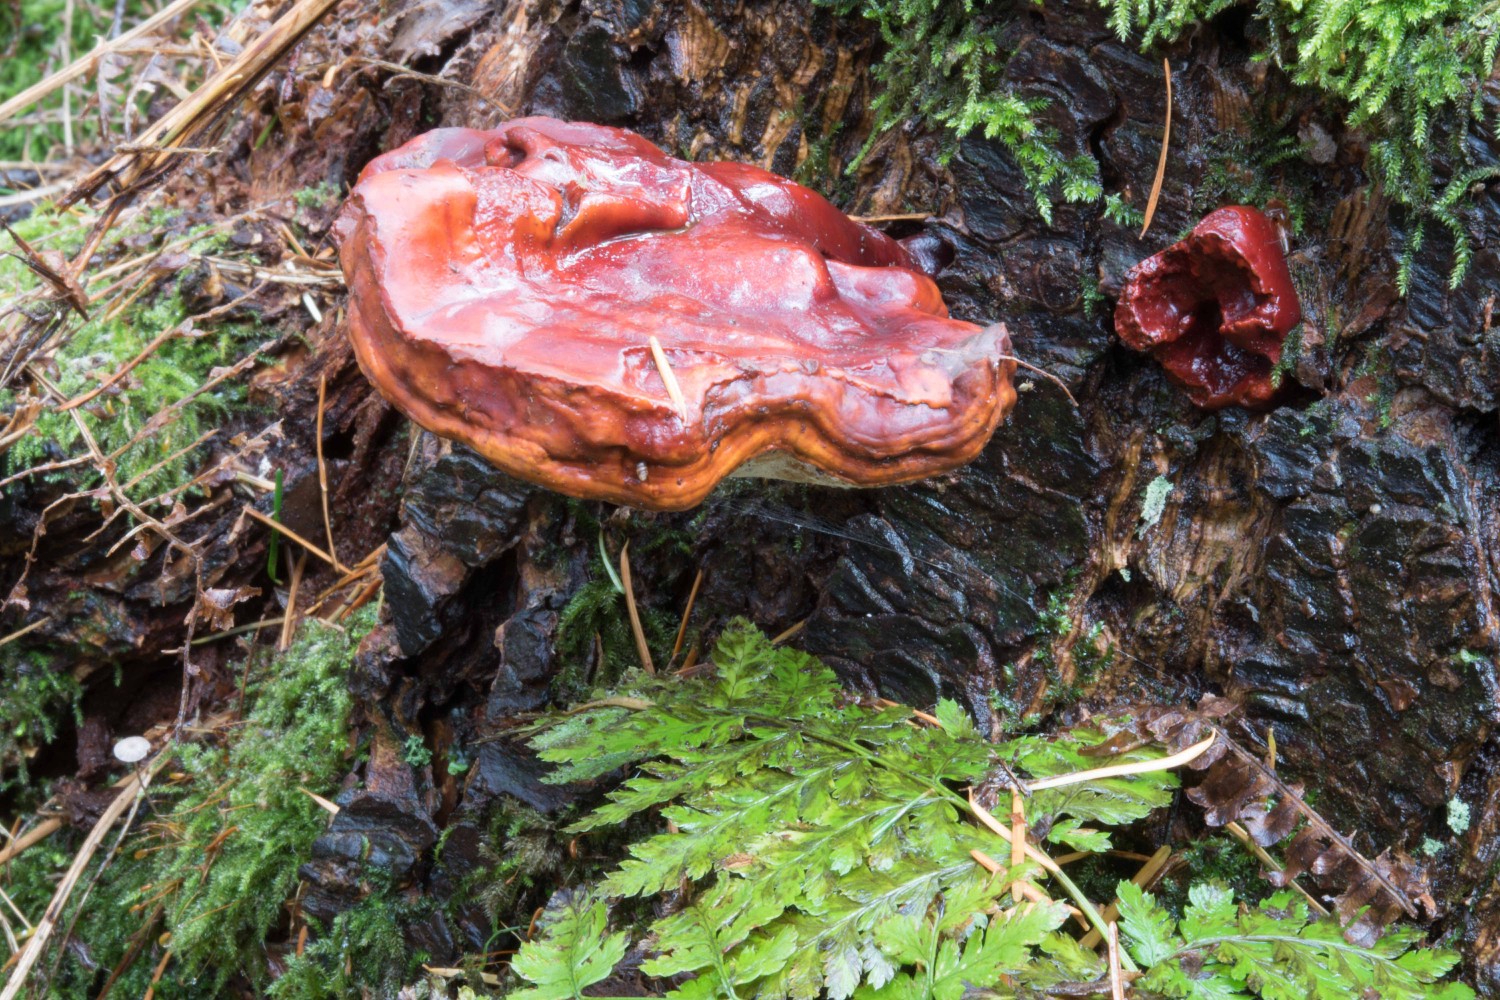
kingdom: Fungi
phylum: Basidiomycota
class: Agaricomycetes
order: Polyporales
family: Polyporaceae
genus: Ganoderma
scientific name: Ganoderma lucidum
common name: skinnende lakporesvamp
